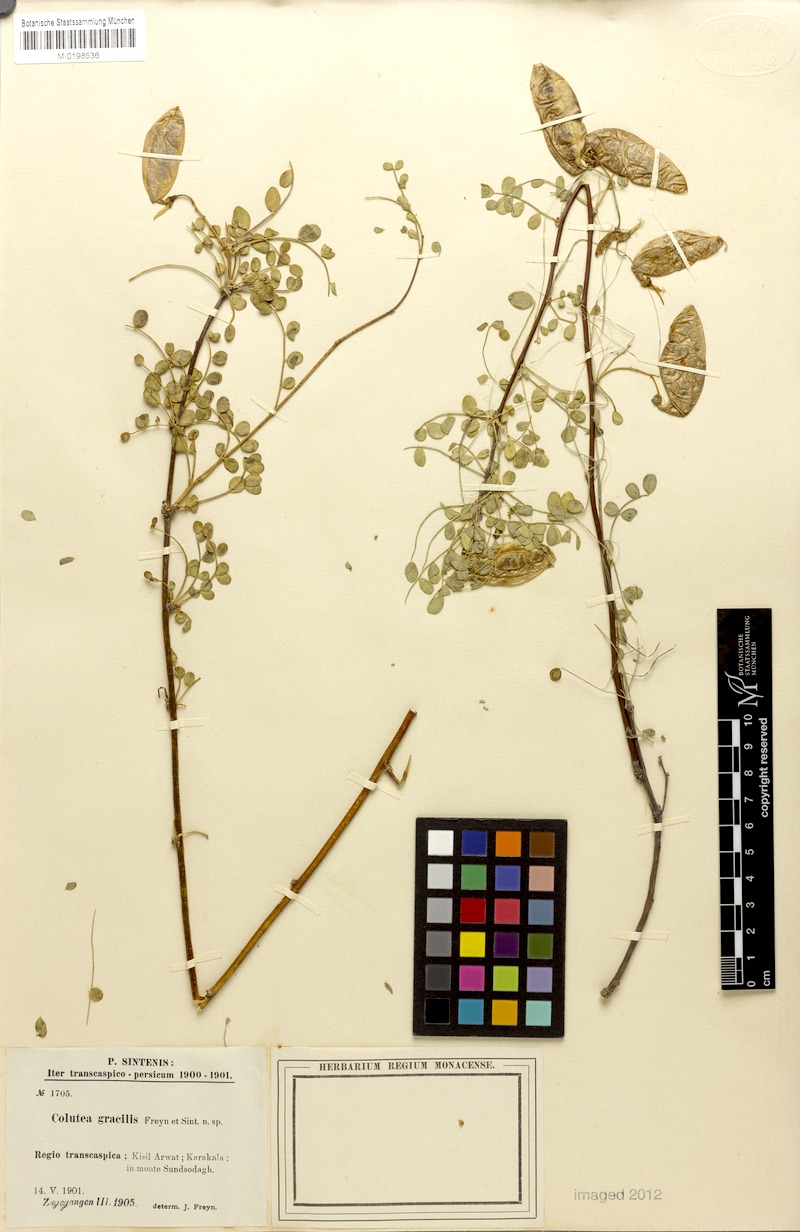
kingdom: Plantae
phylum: Tracheophyta
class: Magnoliopsida
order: Fabales
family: Fabaceae
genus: Colutea
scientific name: Colutea gracilis
